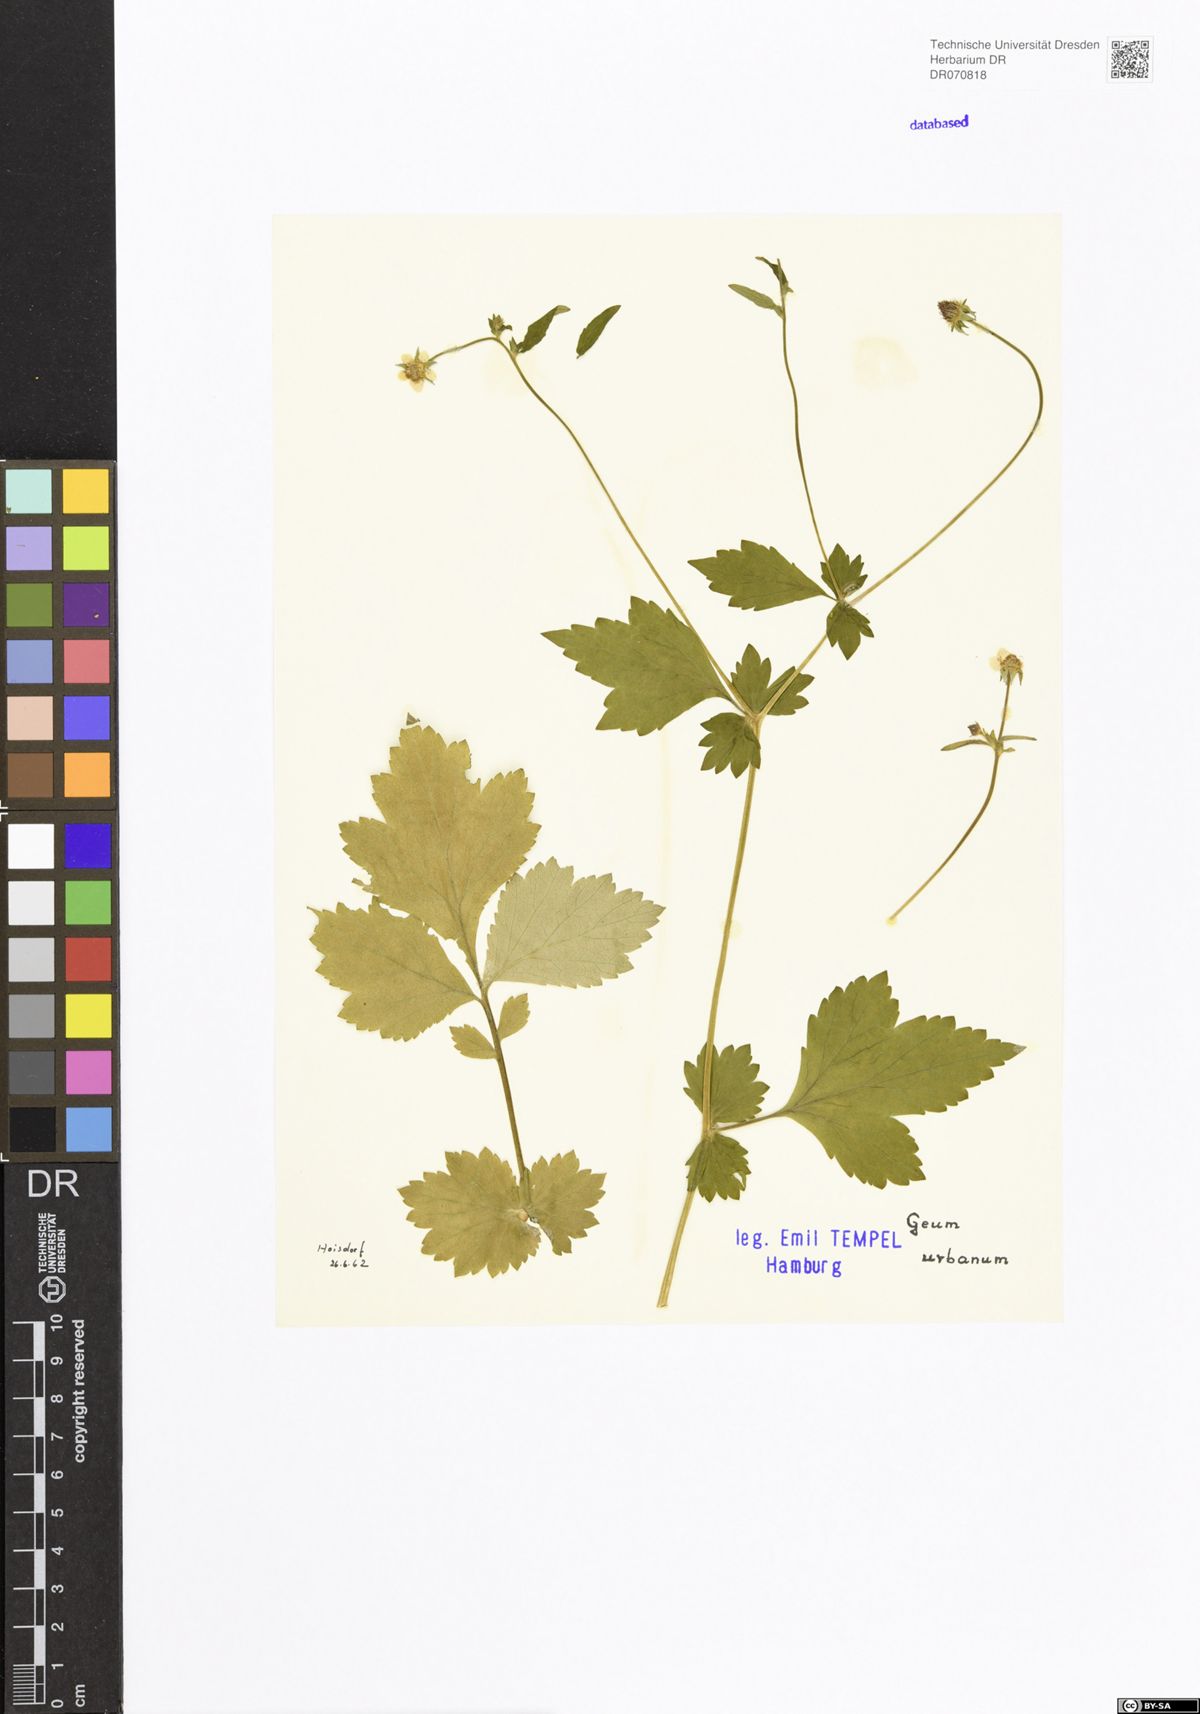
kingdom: Plantae
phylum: Tracheophyta
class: Magnoliopsida
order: Rosales
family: Rosaceae
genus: Geum
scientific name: Geum urbanum
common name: Wood avens
